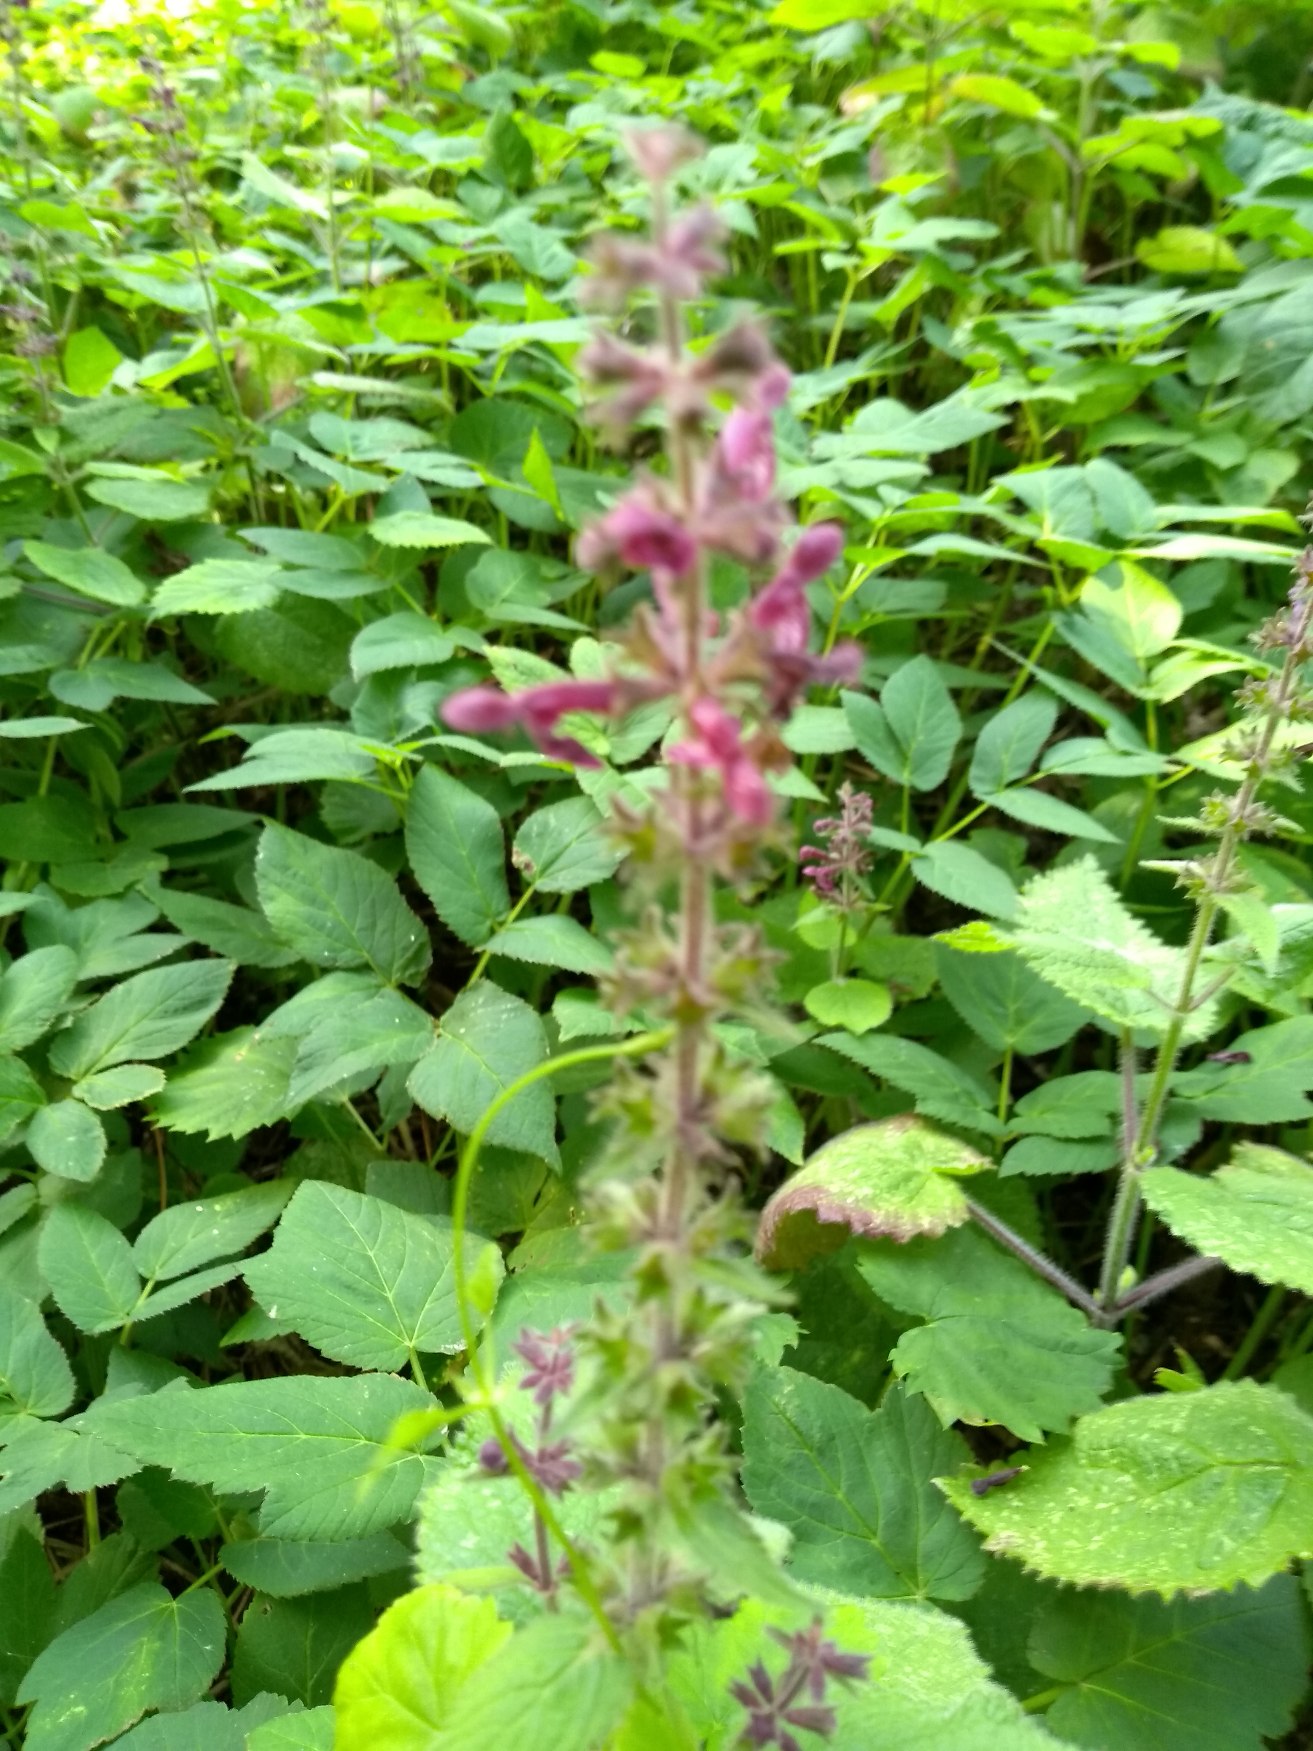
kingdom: Plantae
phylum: Tracheophyta
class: Magnoliopsida
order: Lamiales
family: Lamiaceae
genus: Stachys
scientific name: Stachys sylvatica
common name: Skov-galtetand
